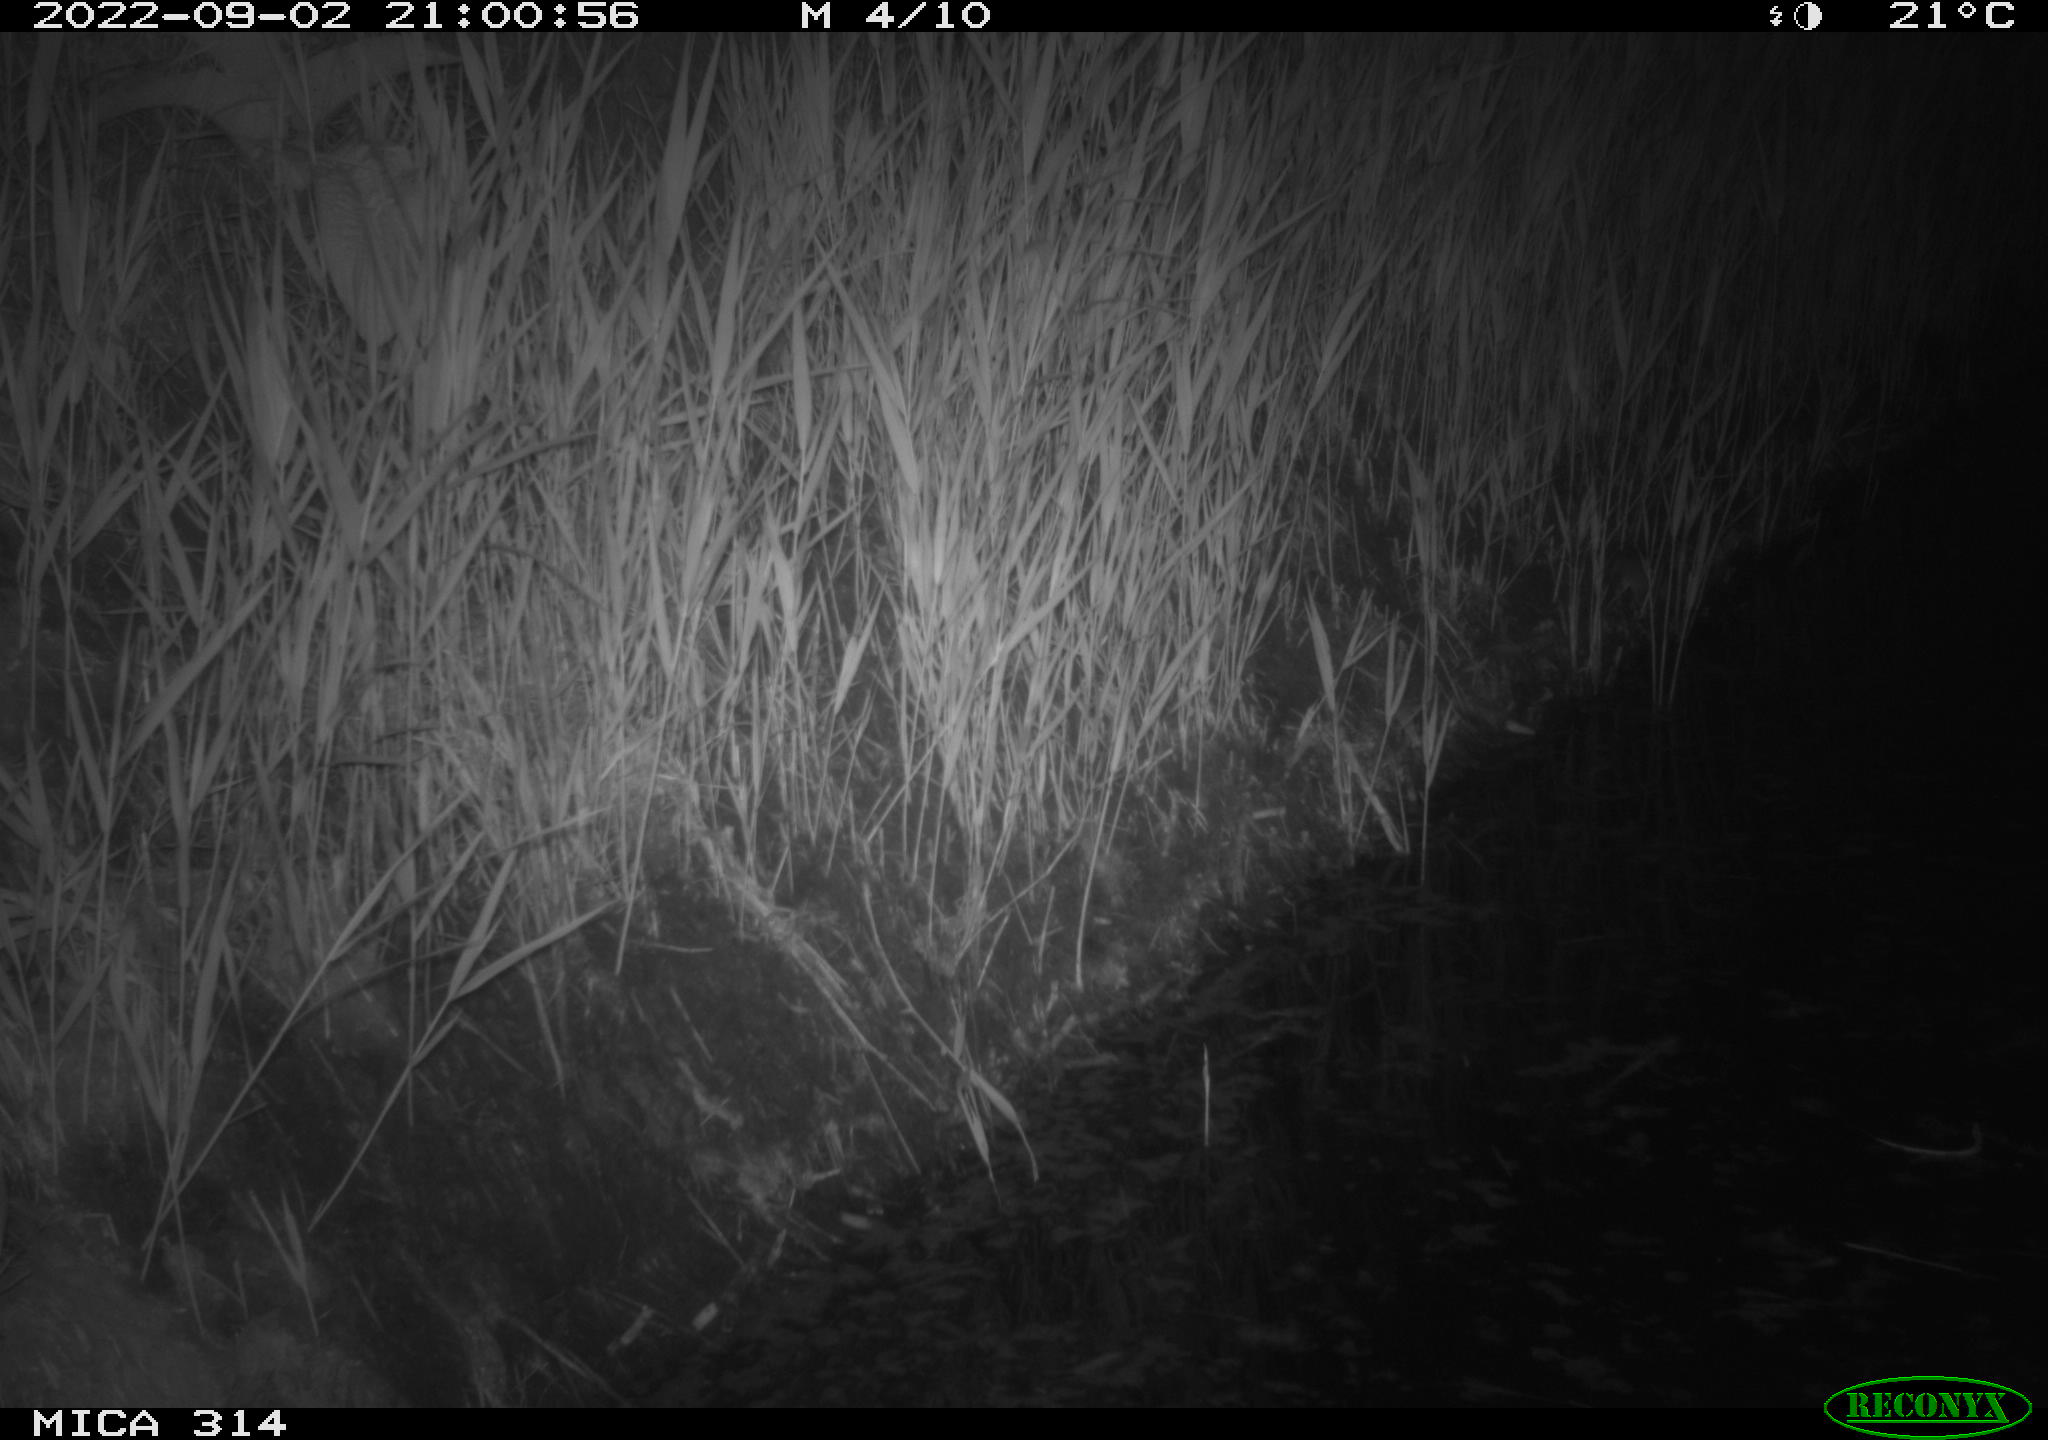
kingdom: Animalia
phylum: Chordata
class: Mammalia
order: Rodentia
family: Muridae
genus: Rattus
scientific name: Rattus norvegicus
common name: Brown rat
